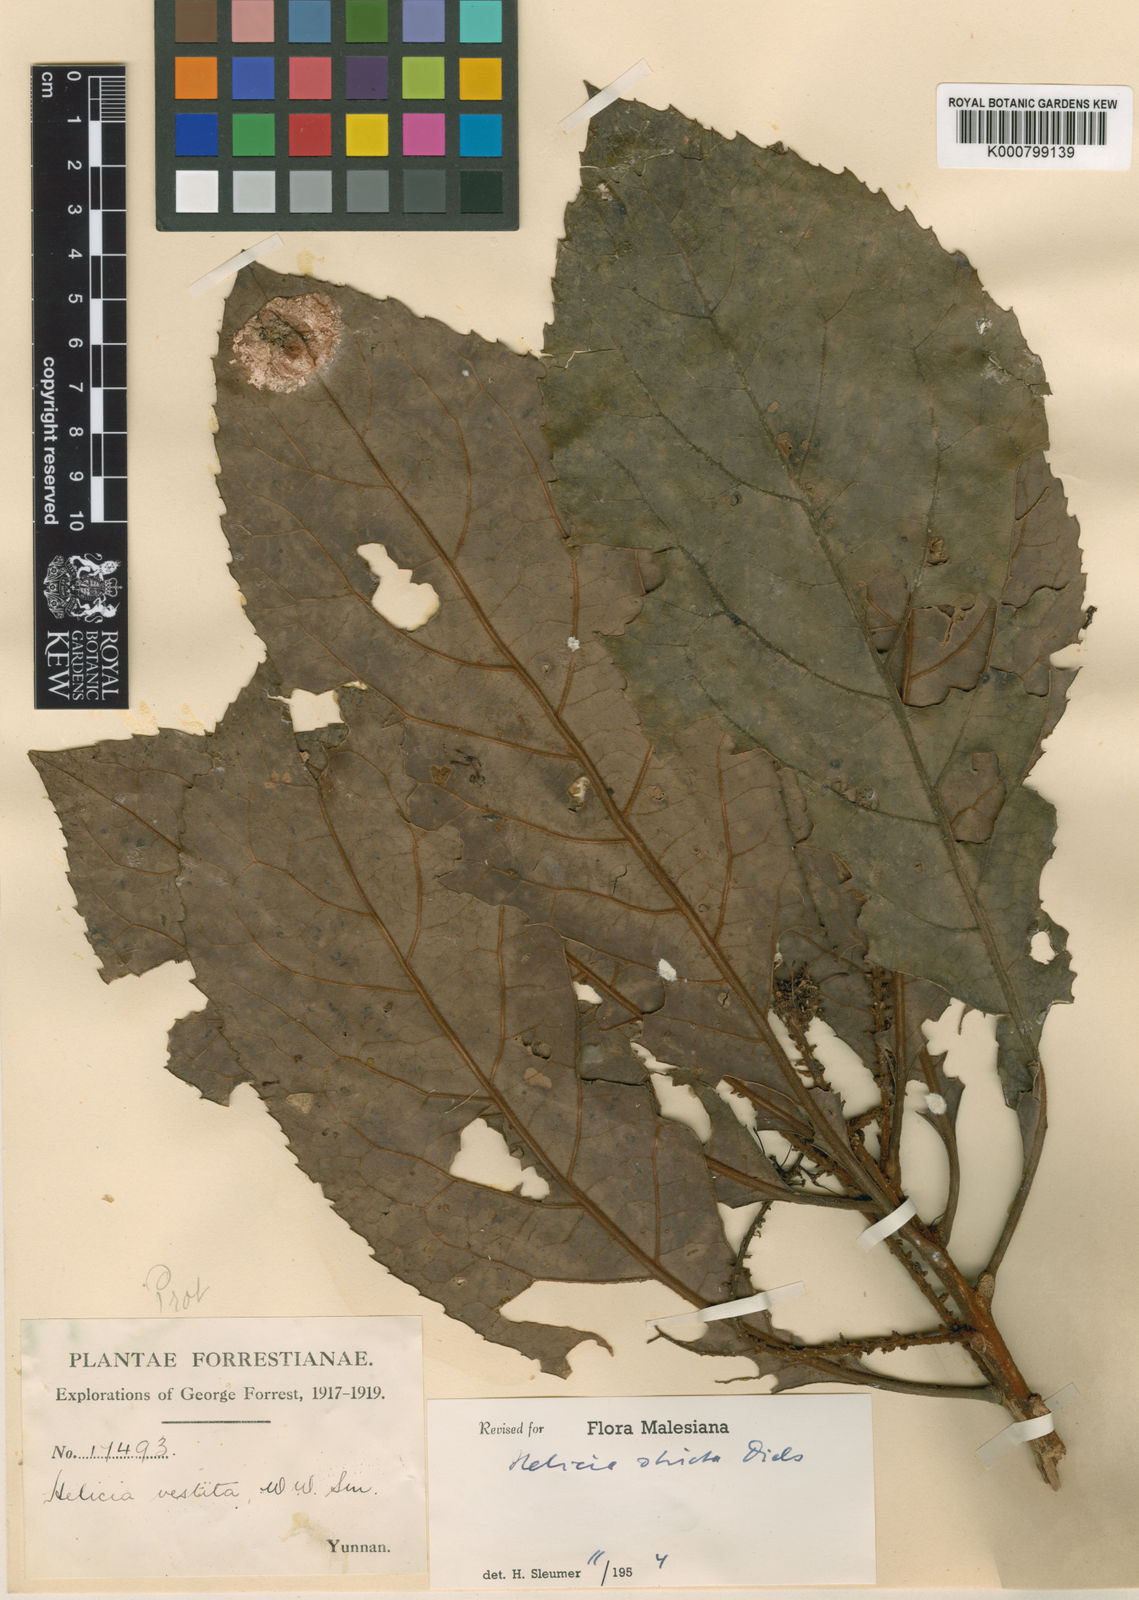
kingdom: Plantae
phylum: Tracheophyta
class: Magnoliopsida
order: Proteales
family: Proteaceae
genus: Helicia
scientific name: Helicia nilagirica
